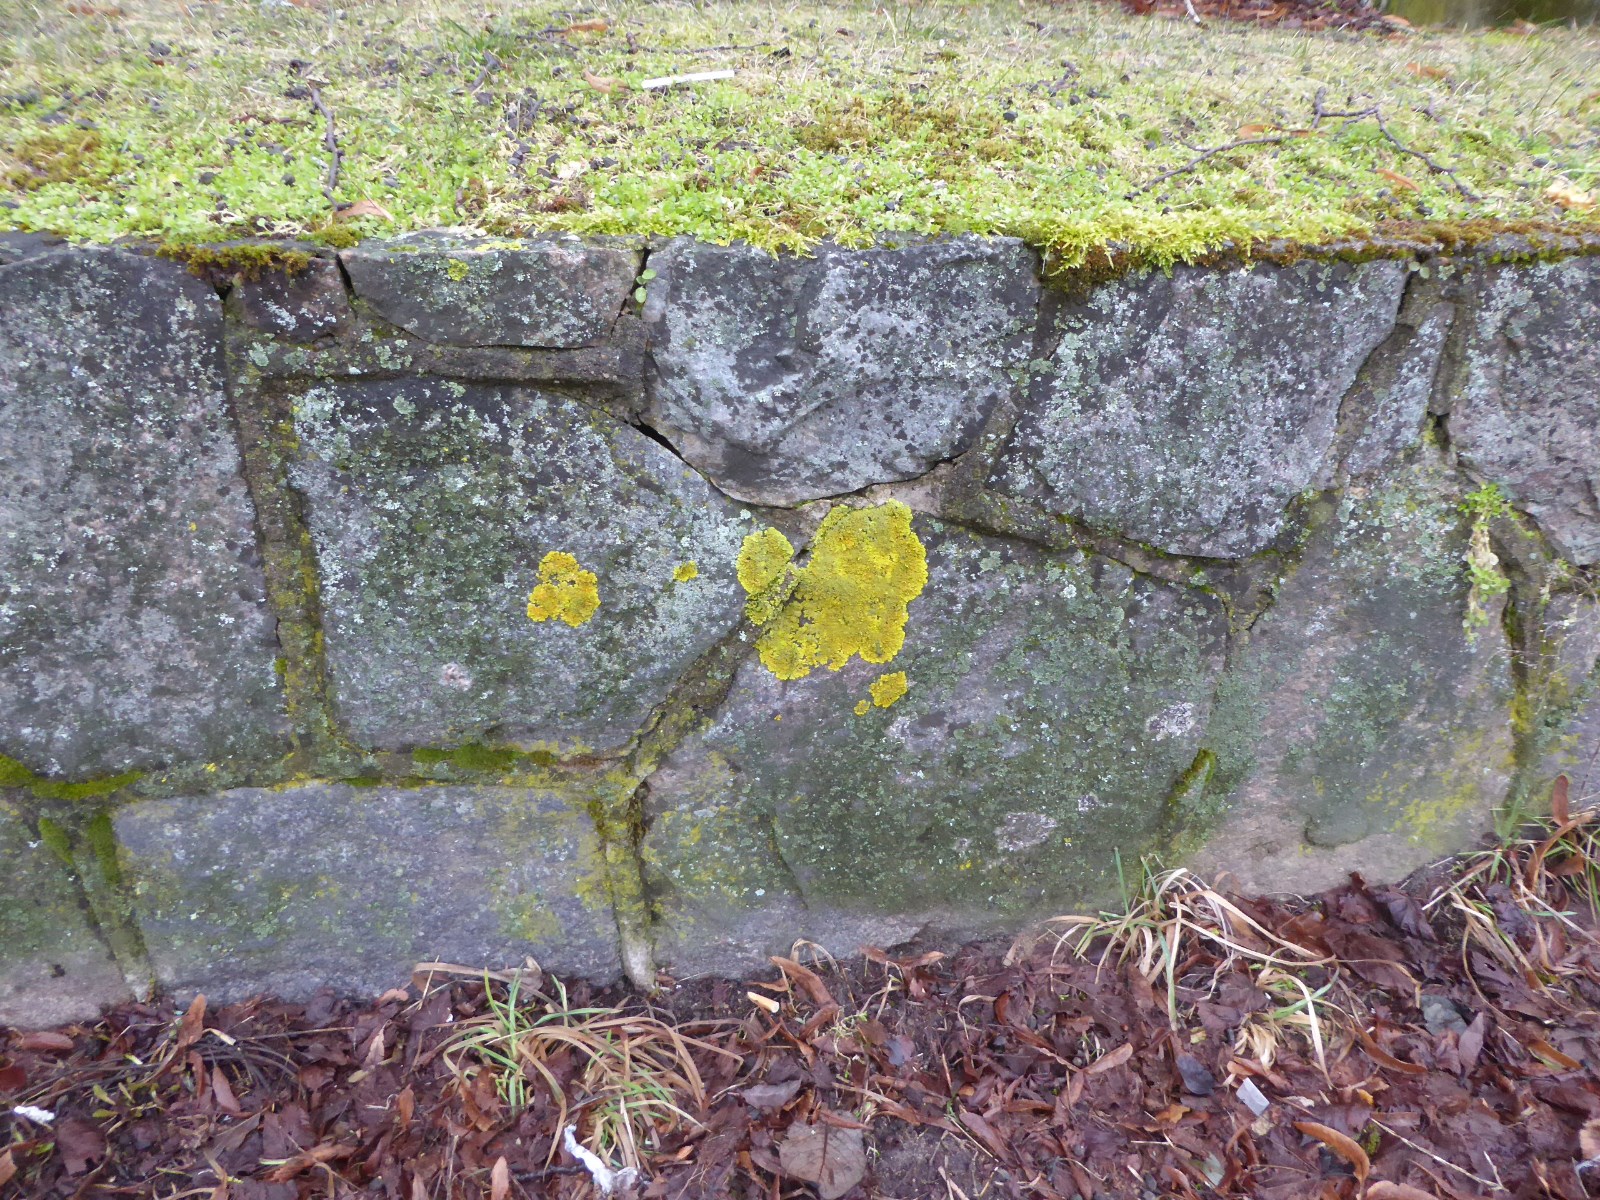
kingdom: Fungi
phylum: Ascomycota
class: Lecanoromycetes
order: Teloschistales
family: Teloschistaceae
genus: Xanthoria
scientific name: Xanthoria calcicola
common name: vortet væggelav
